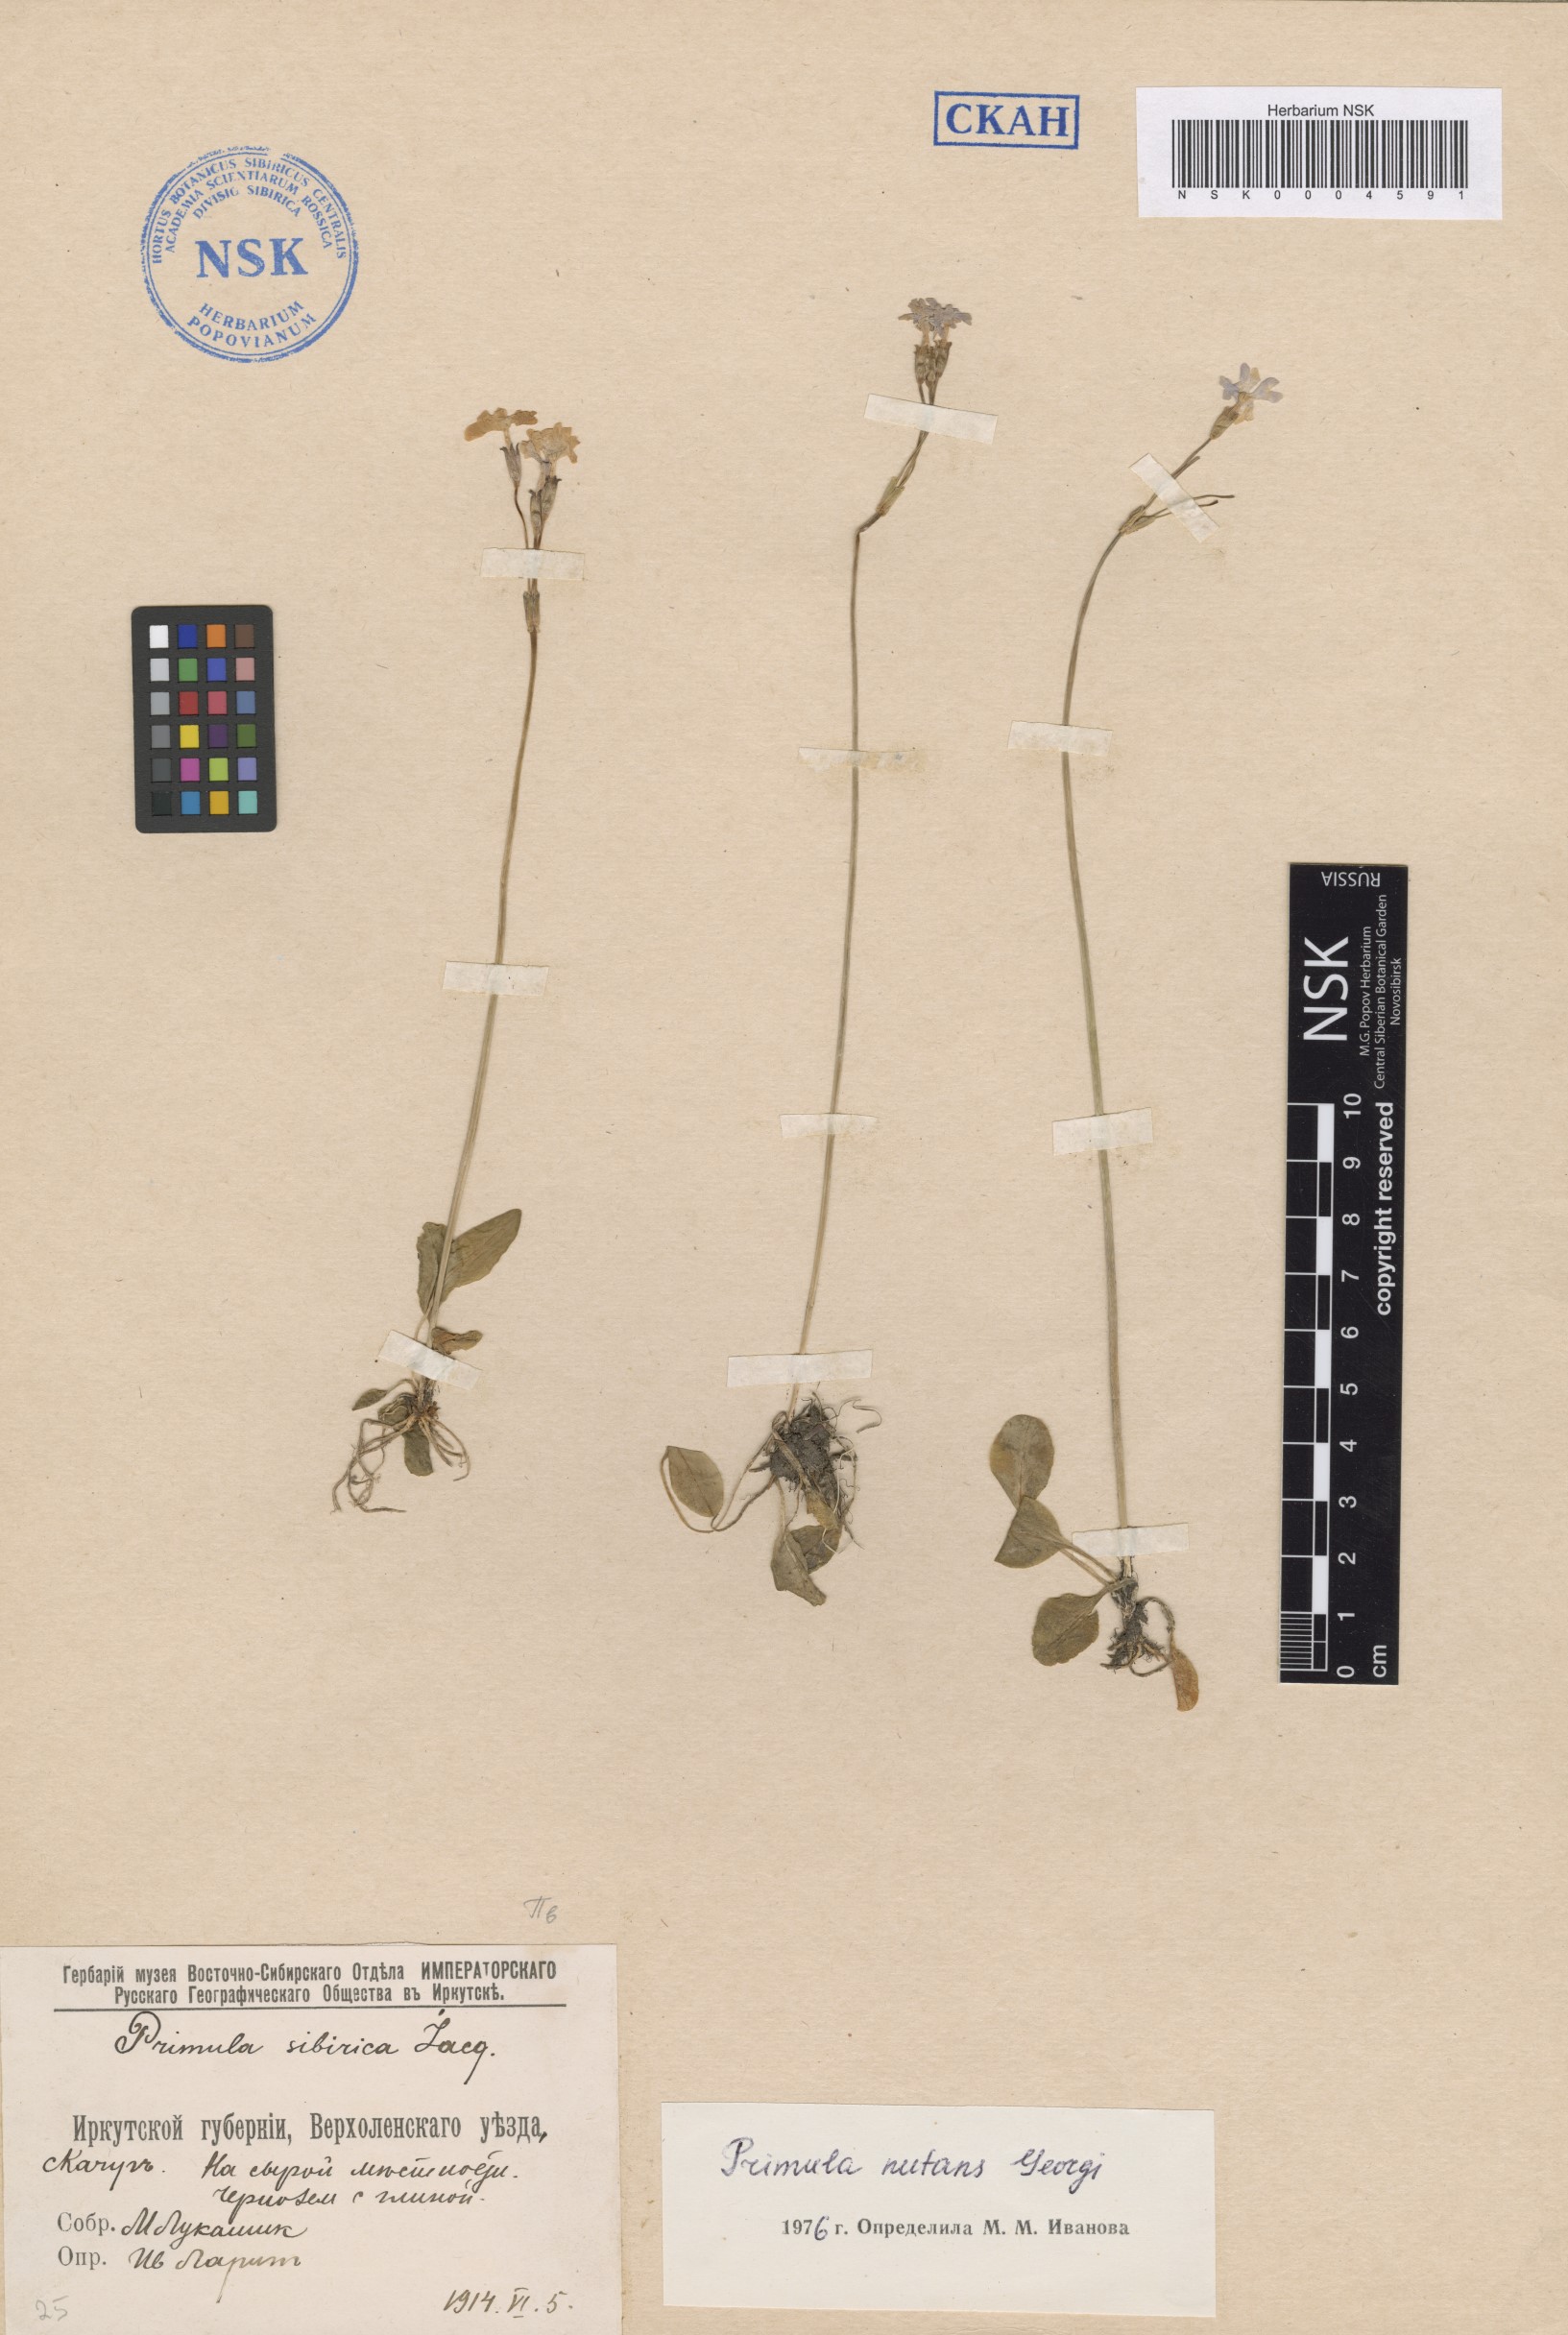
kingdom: Plantae
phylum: Tracheophyta
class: Magnoliopsida
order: Ericales
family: Primulaceae
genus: Primula
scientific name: Primula nutans
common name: Siberian primrose
